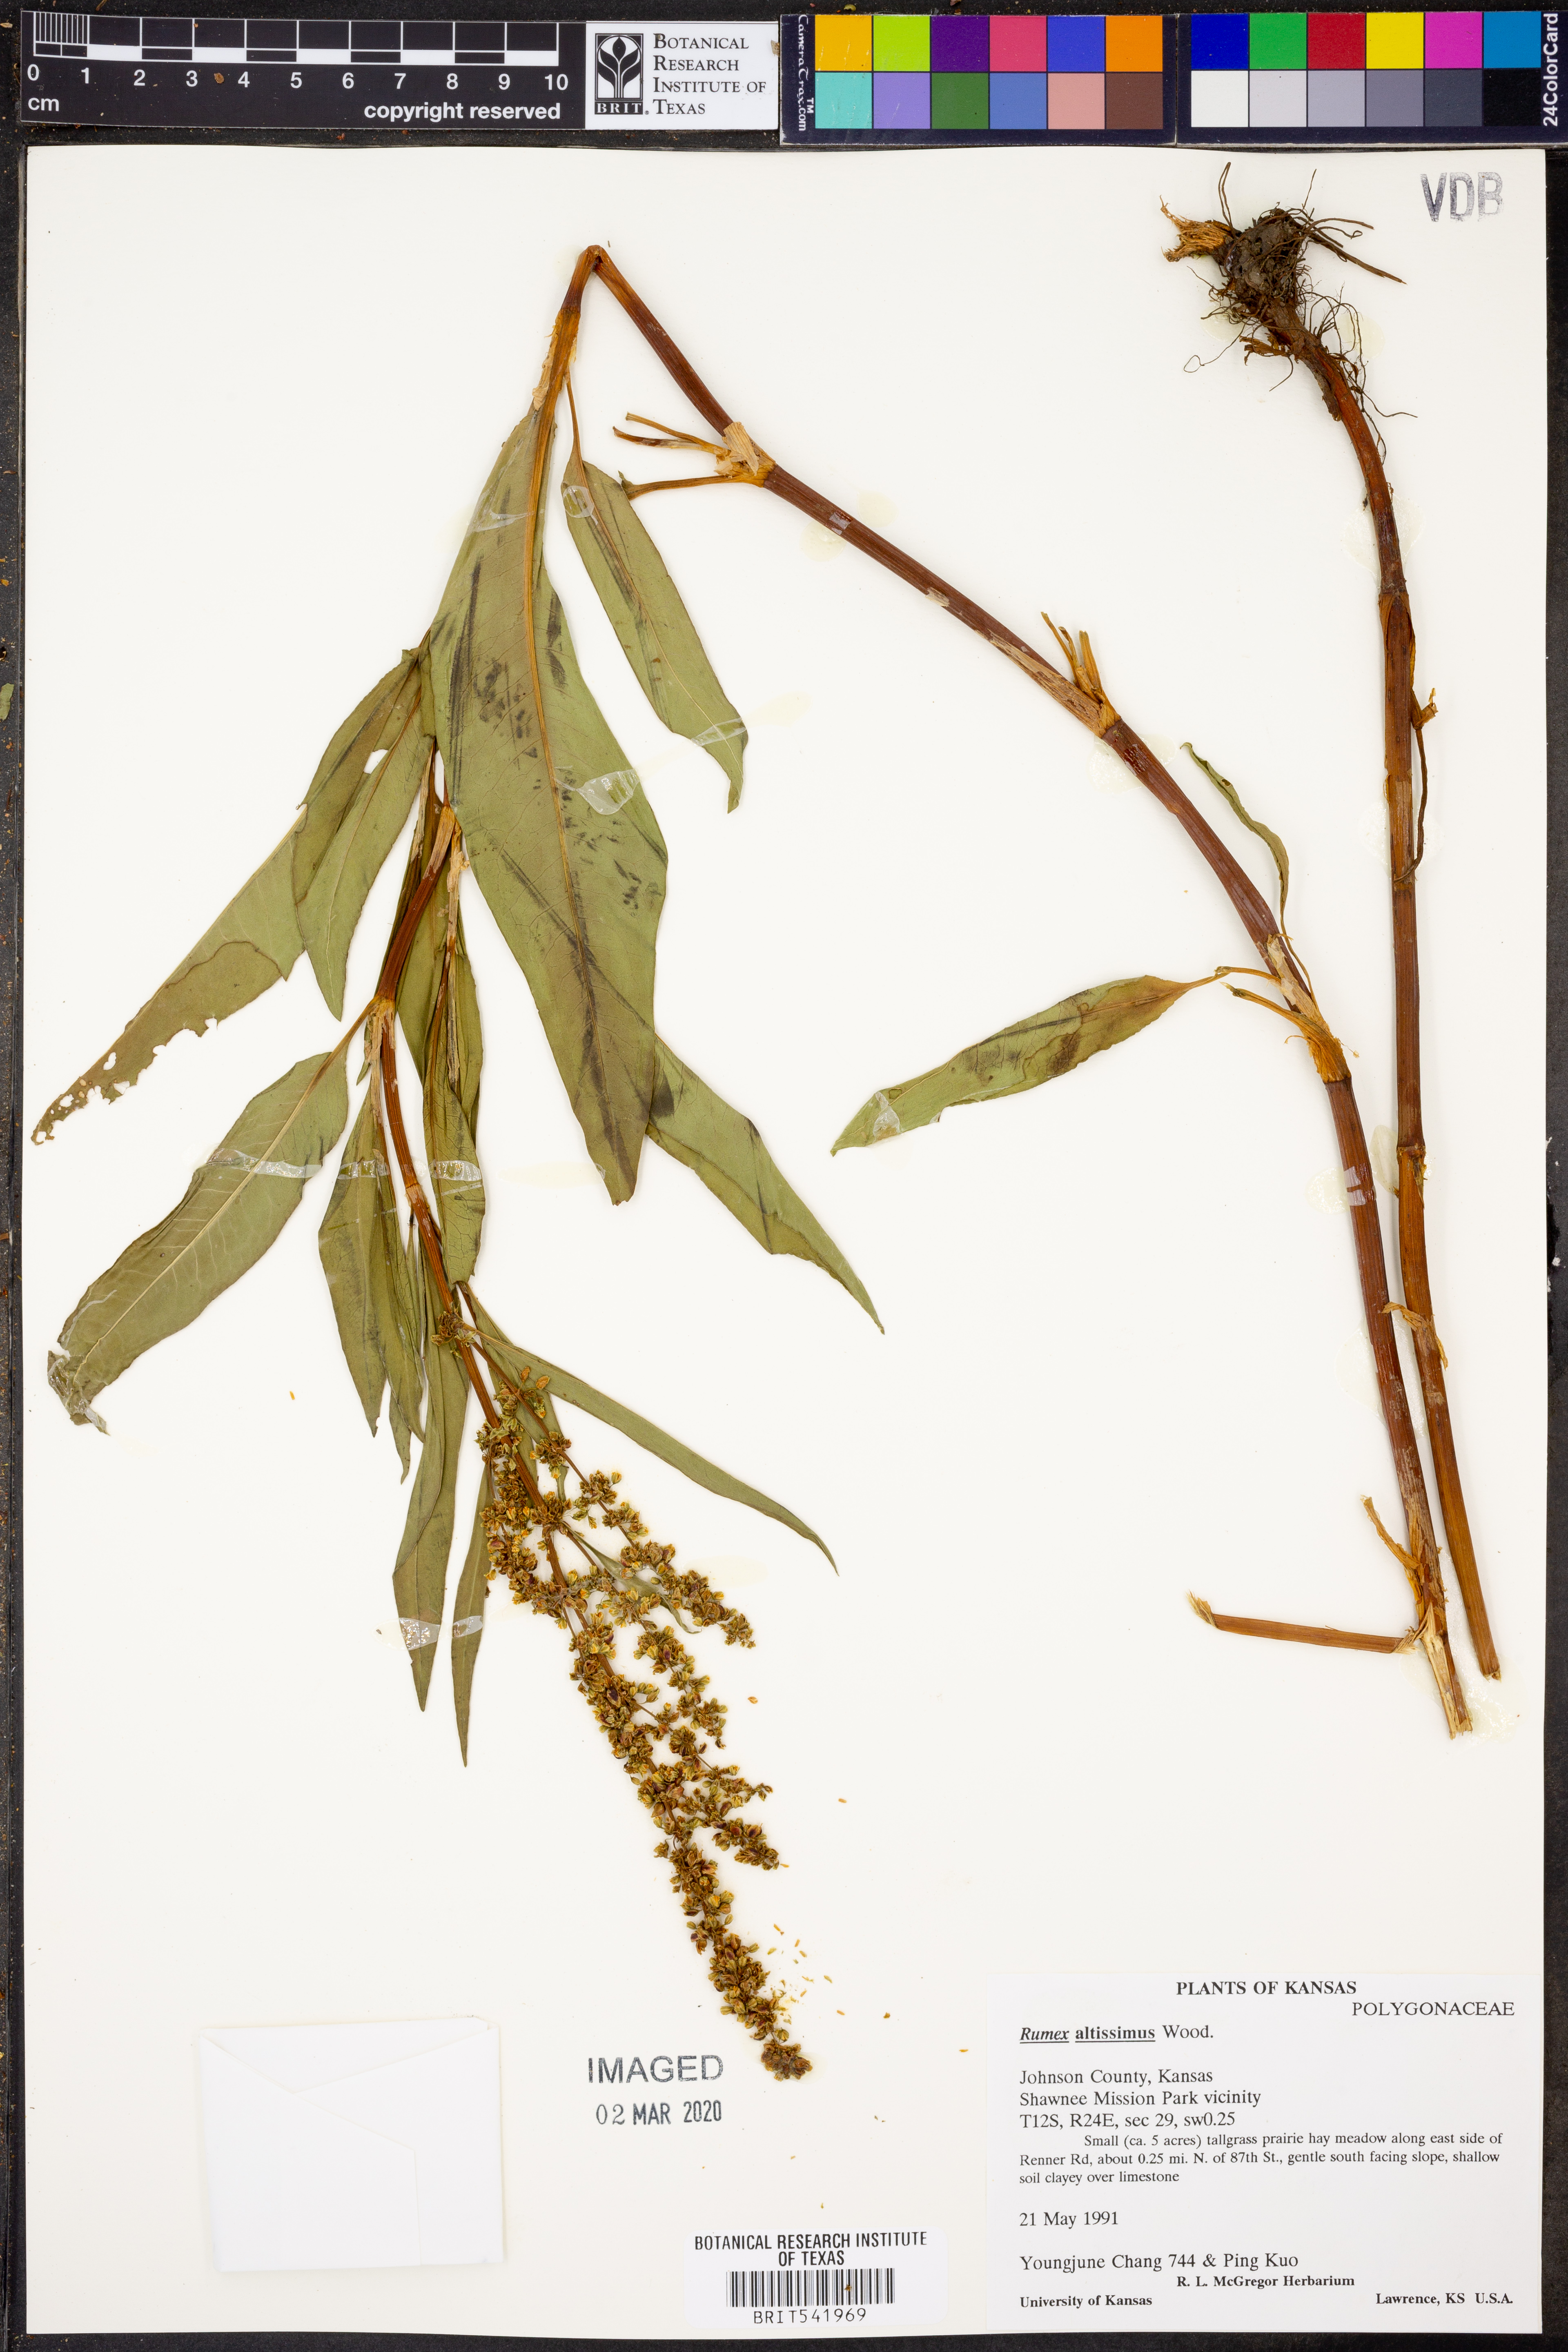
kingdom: Plantae
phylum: Tracheophyta
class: Magnoliopsida
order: Caryophyllales
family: Polygonaceae
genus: Rumex
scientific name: Rumex altissimus
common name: Smooth dock
